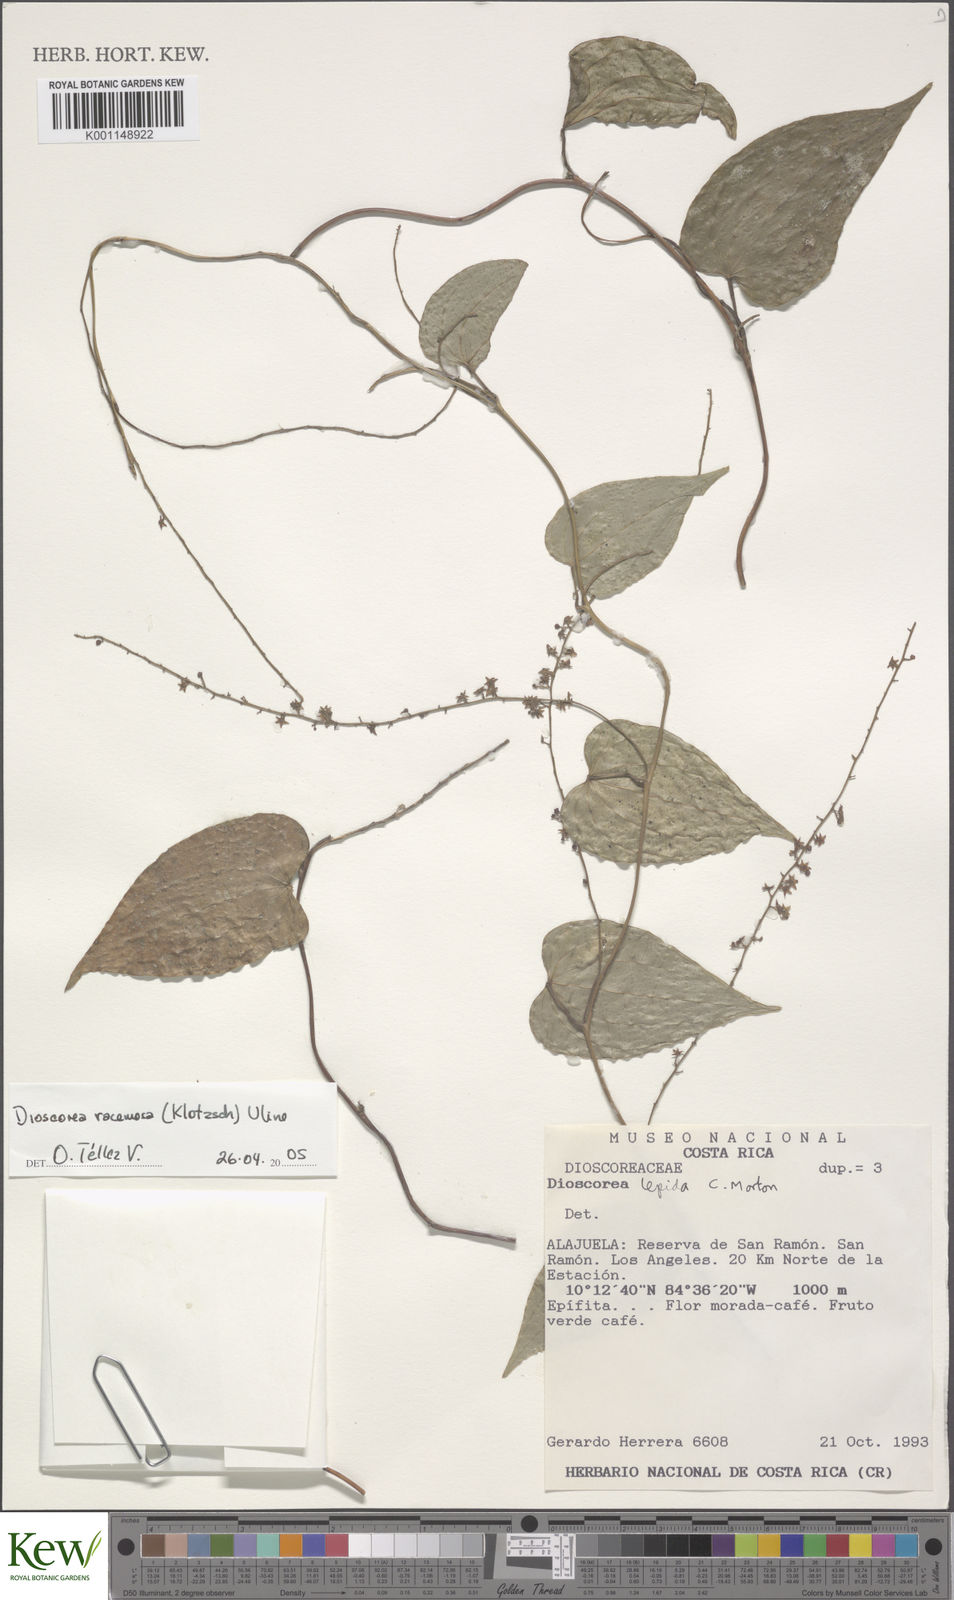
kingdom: Plantae
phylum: Tracheophyta
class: Liliopsida
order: Dioscoreales
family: Dioscoreaceae
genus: Dioscorea
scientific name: Dioscorea
